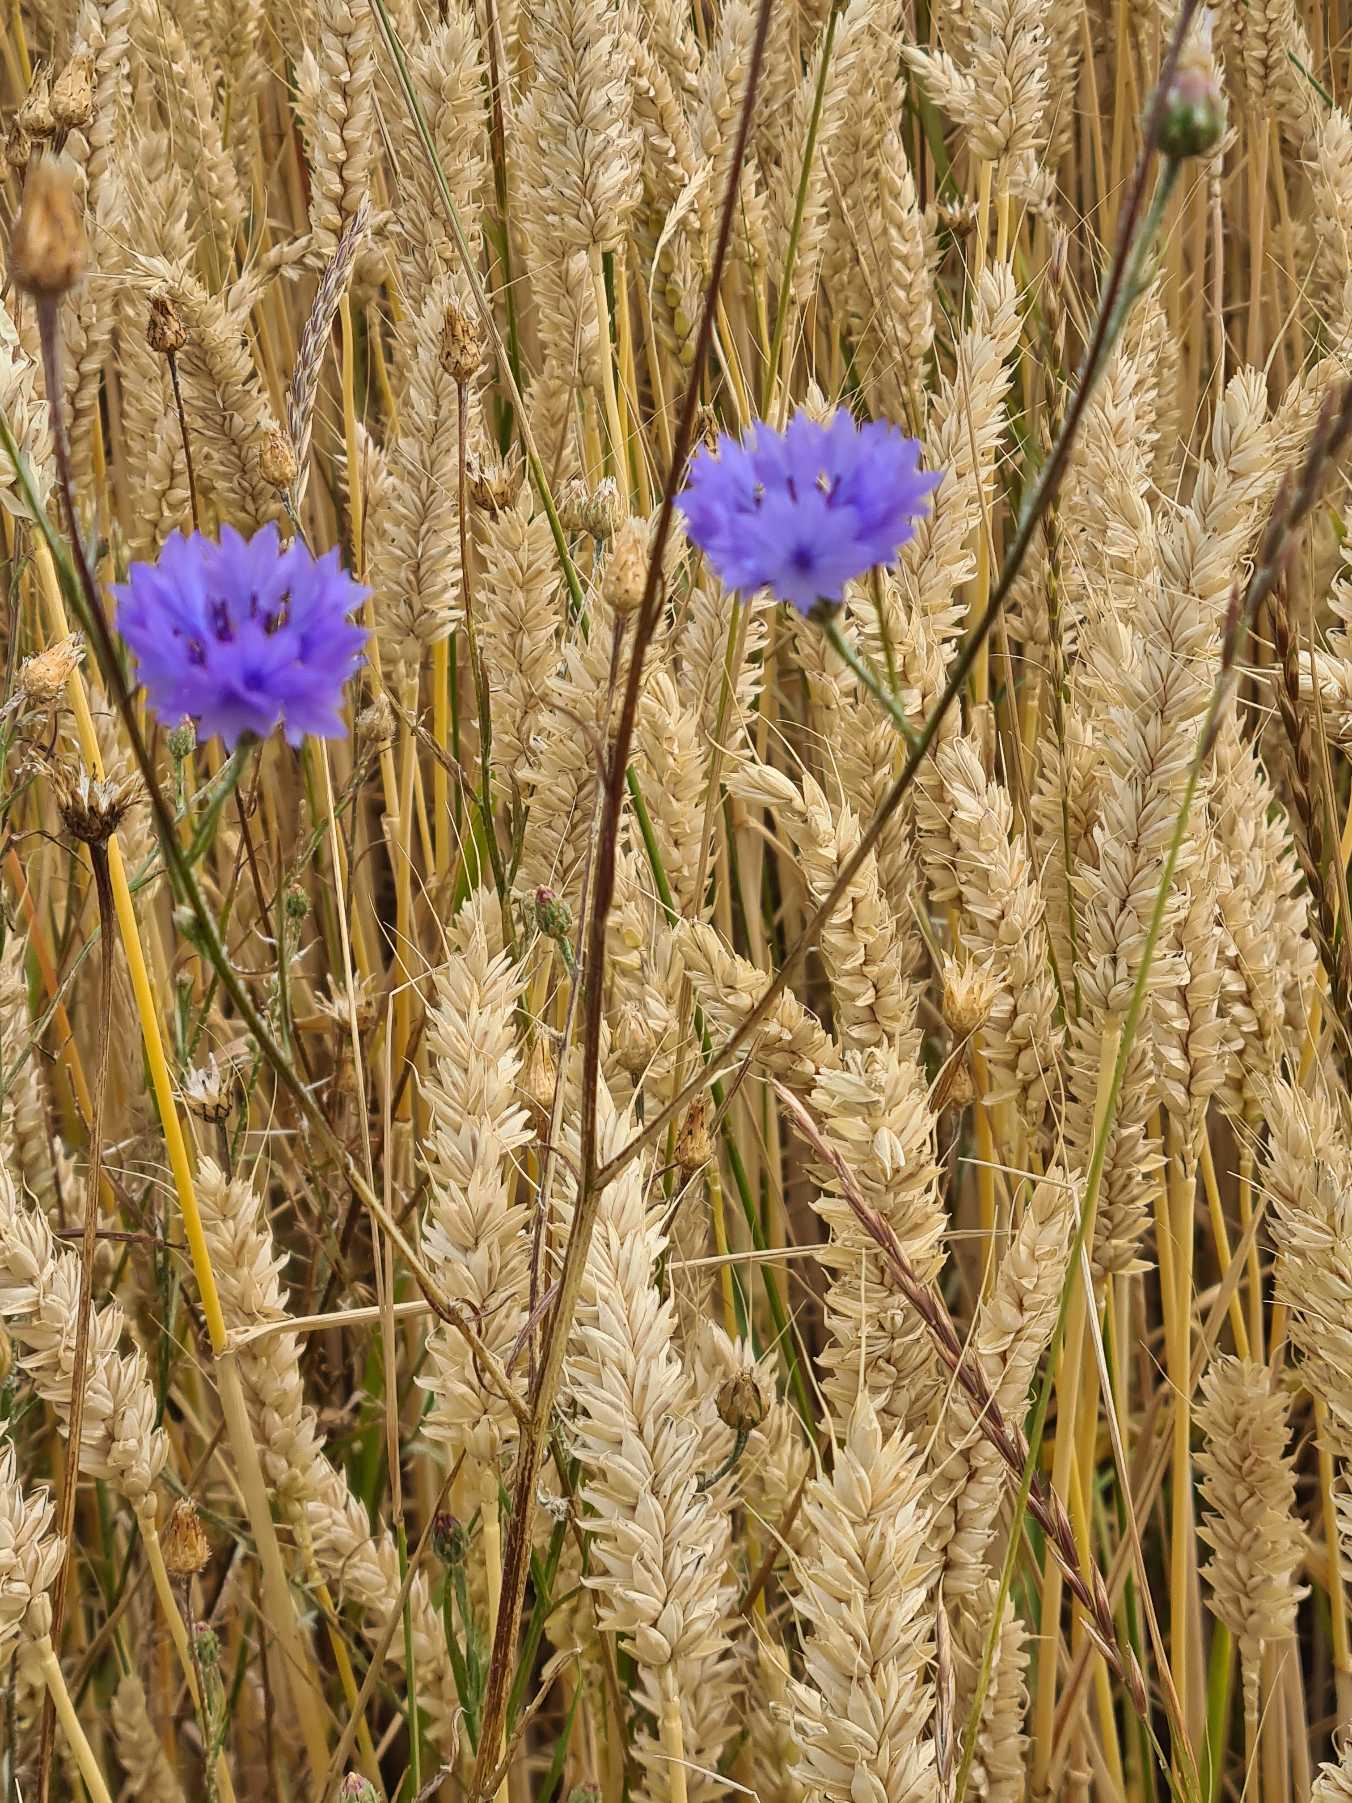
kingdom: Plantae
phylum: Tracheophyta
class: Magnoliopsida
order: Asterales
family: Asteraceae
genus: Centaurea
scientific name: Centaurea cyanus
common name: Kornblomst
